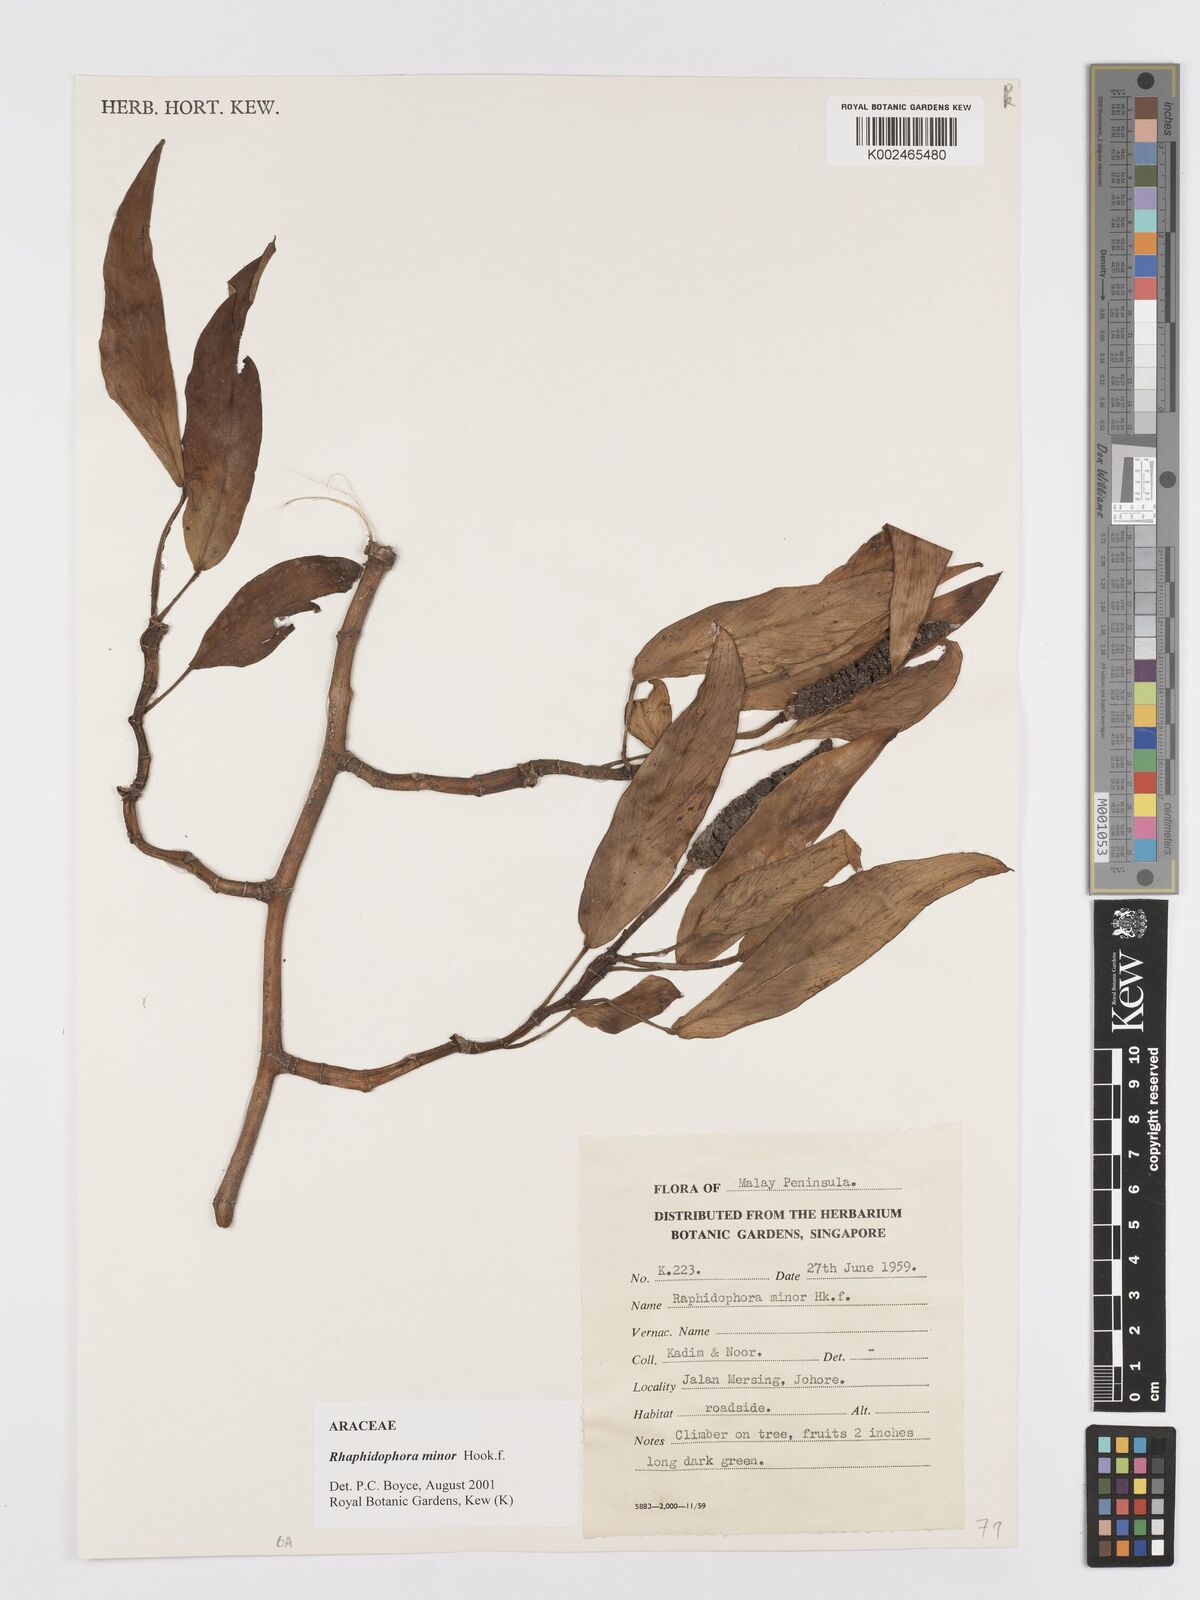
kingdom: Plantae
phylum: Tracheophyta
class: Liliopsida
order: Alismatales
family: Araceae
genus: Rhaphidophora
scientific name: Rhaphidophora minor
